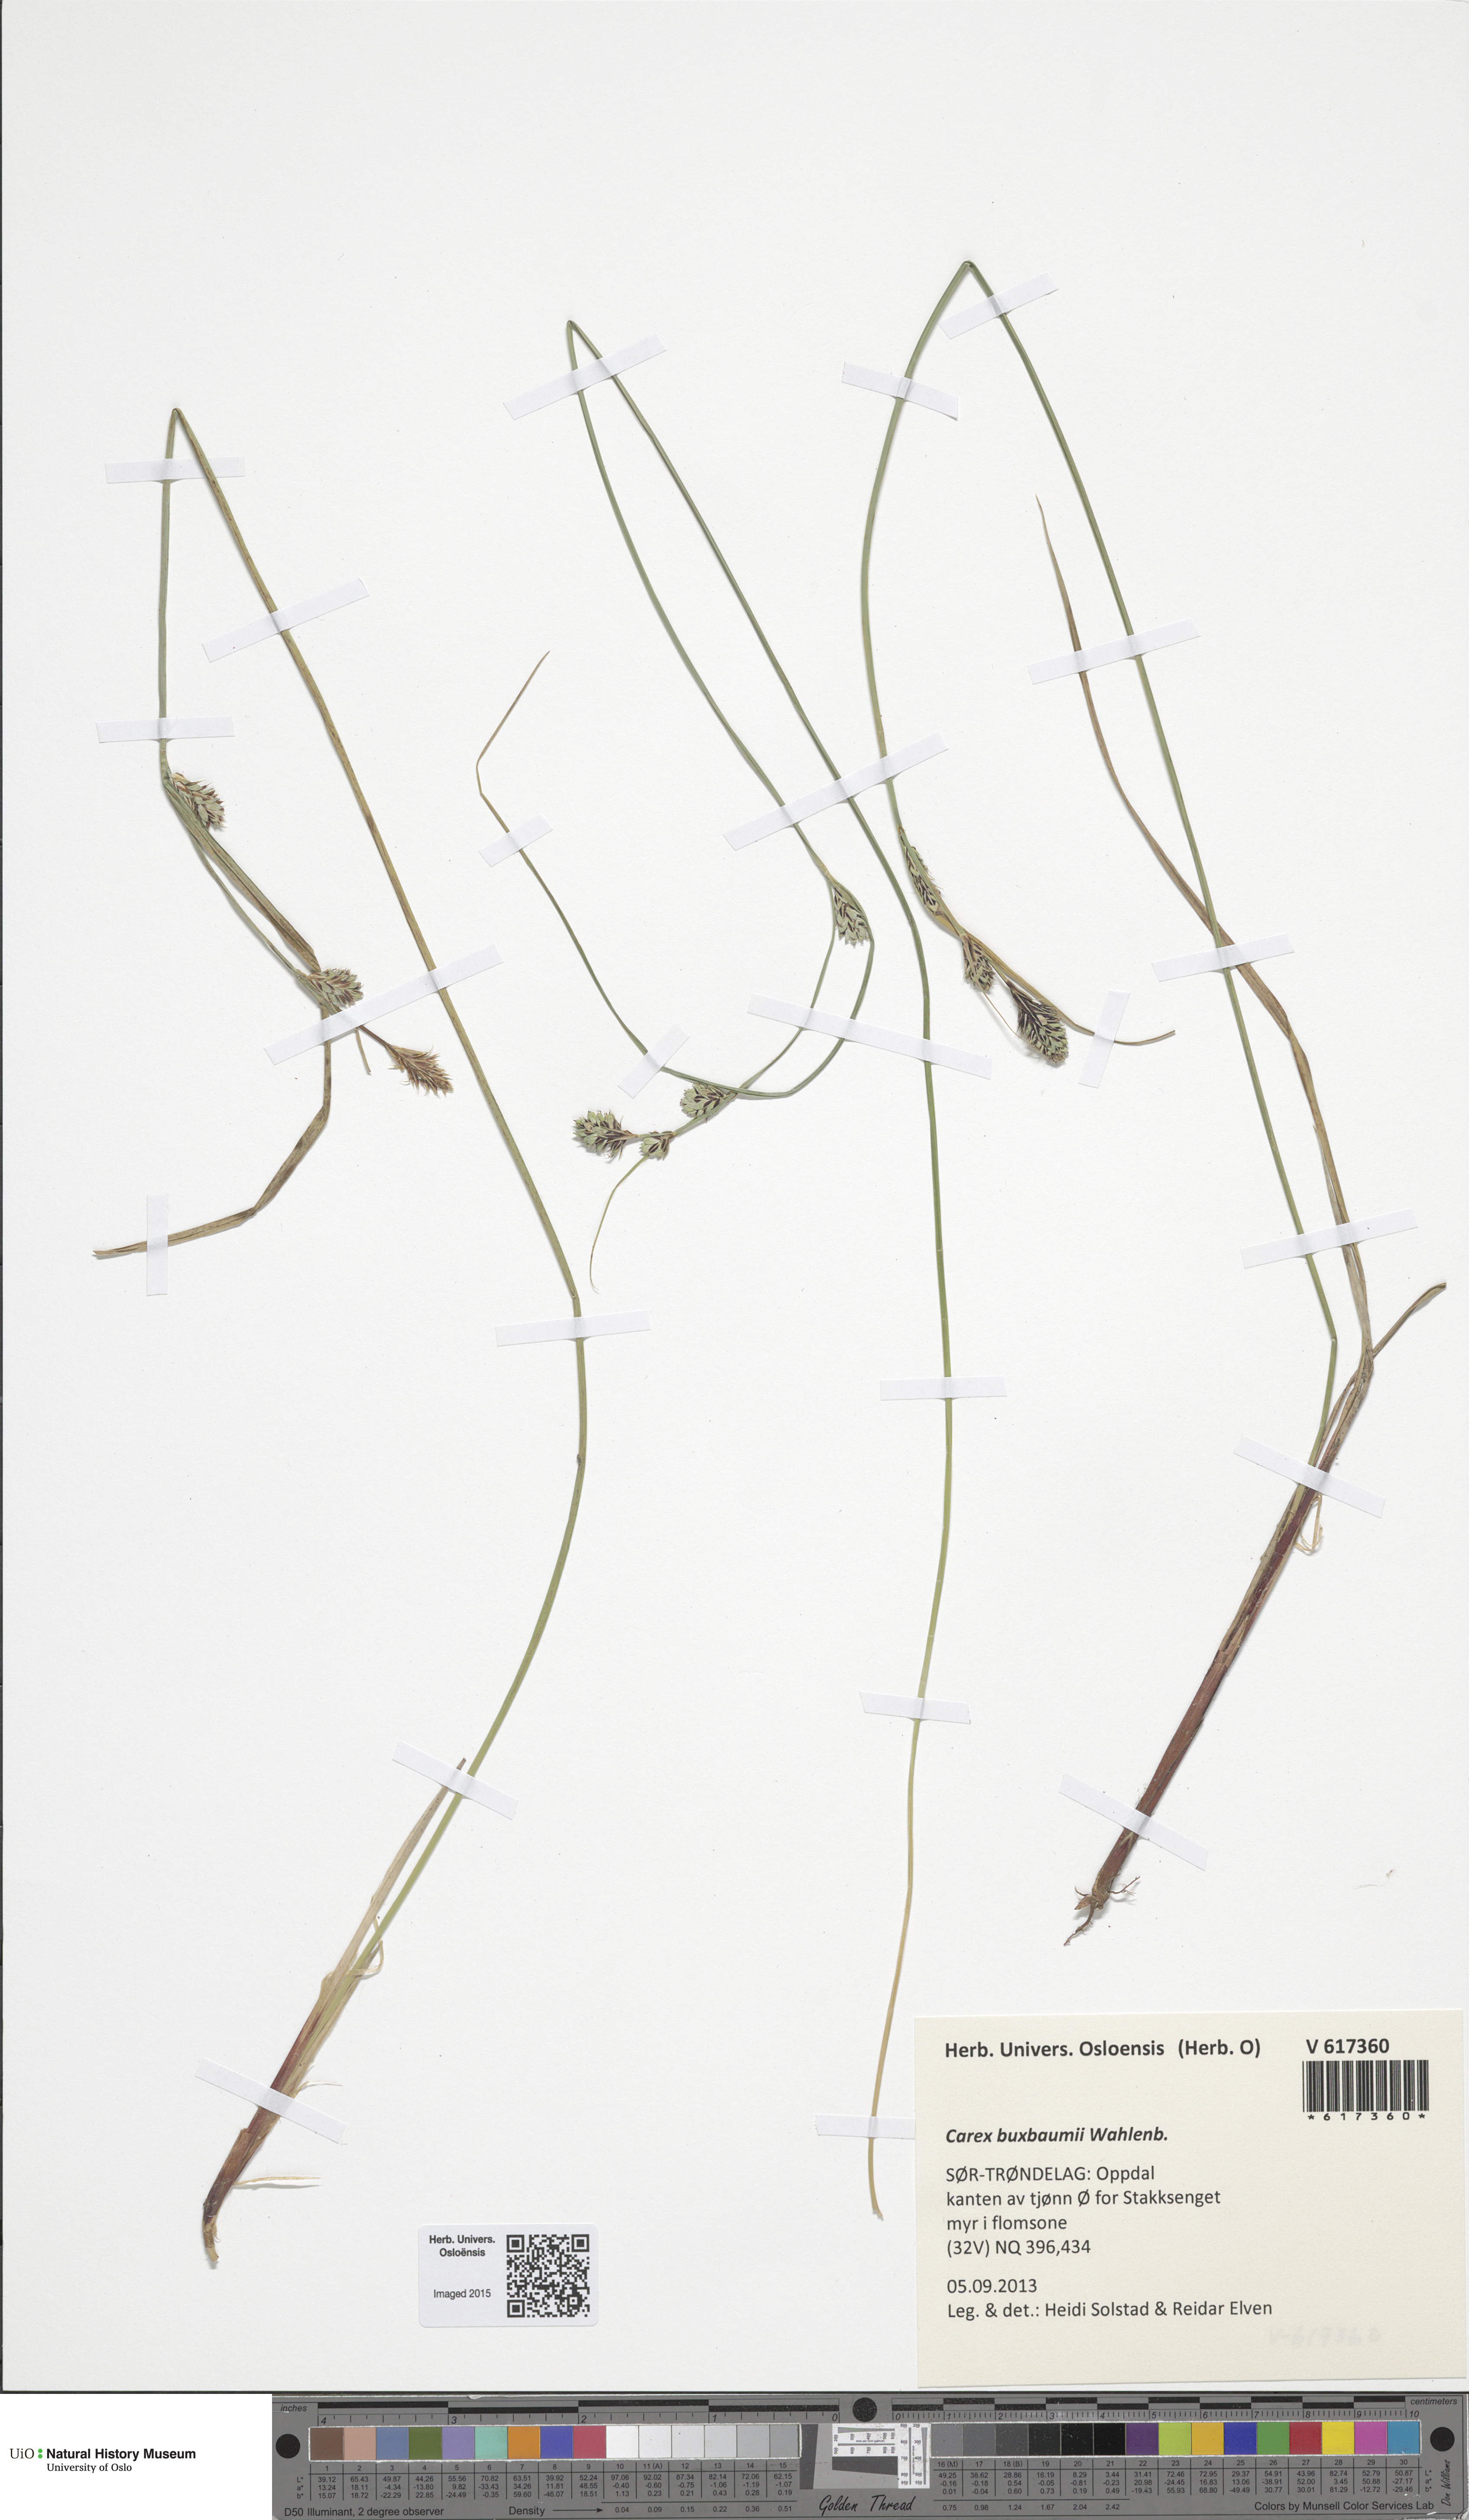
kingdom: Plantae
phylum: Tracheophyta
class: Liliopsida
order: Poales
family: Cyperaceae
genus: Carex
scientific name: Carex buxbaumii
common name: Club sedge
